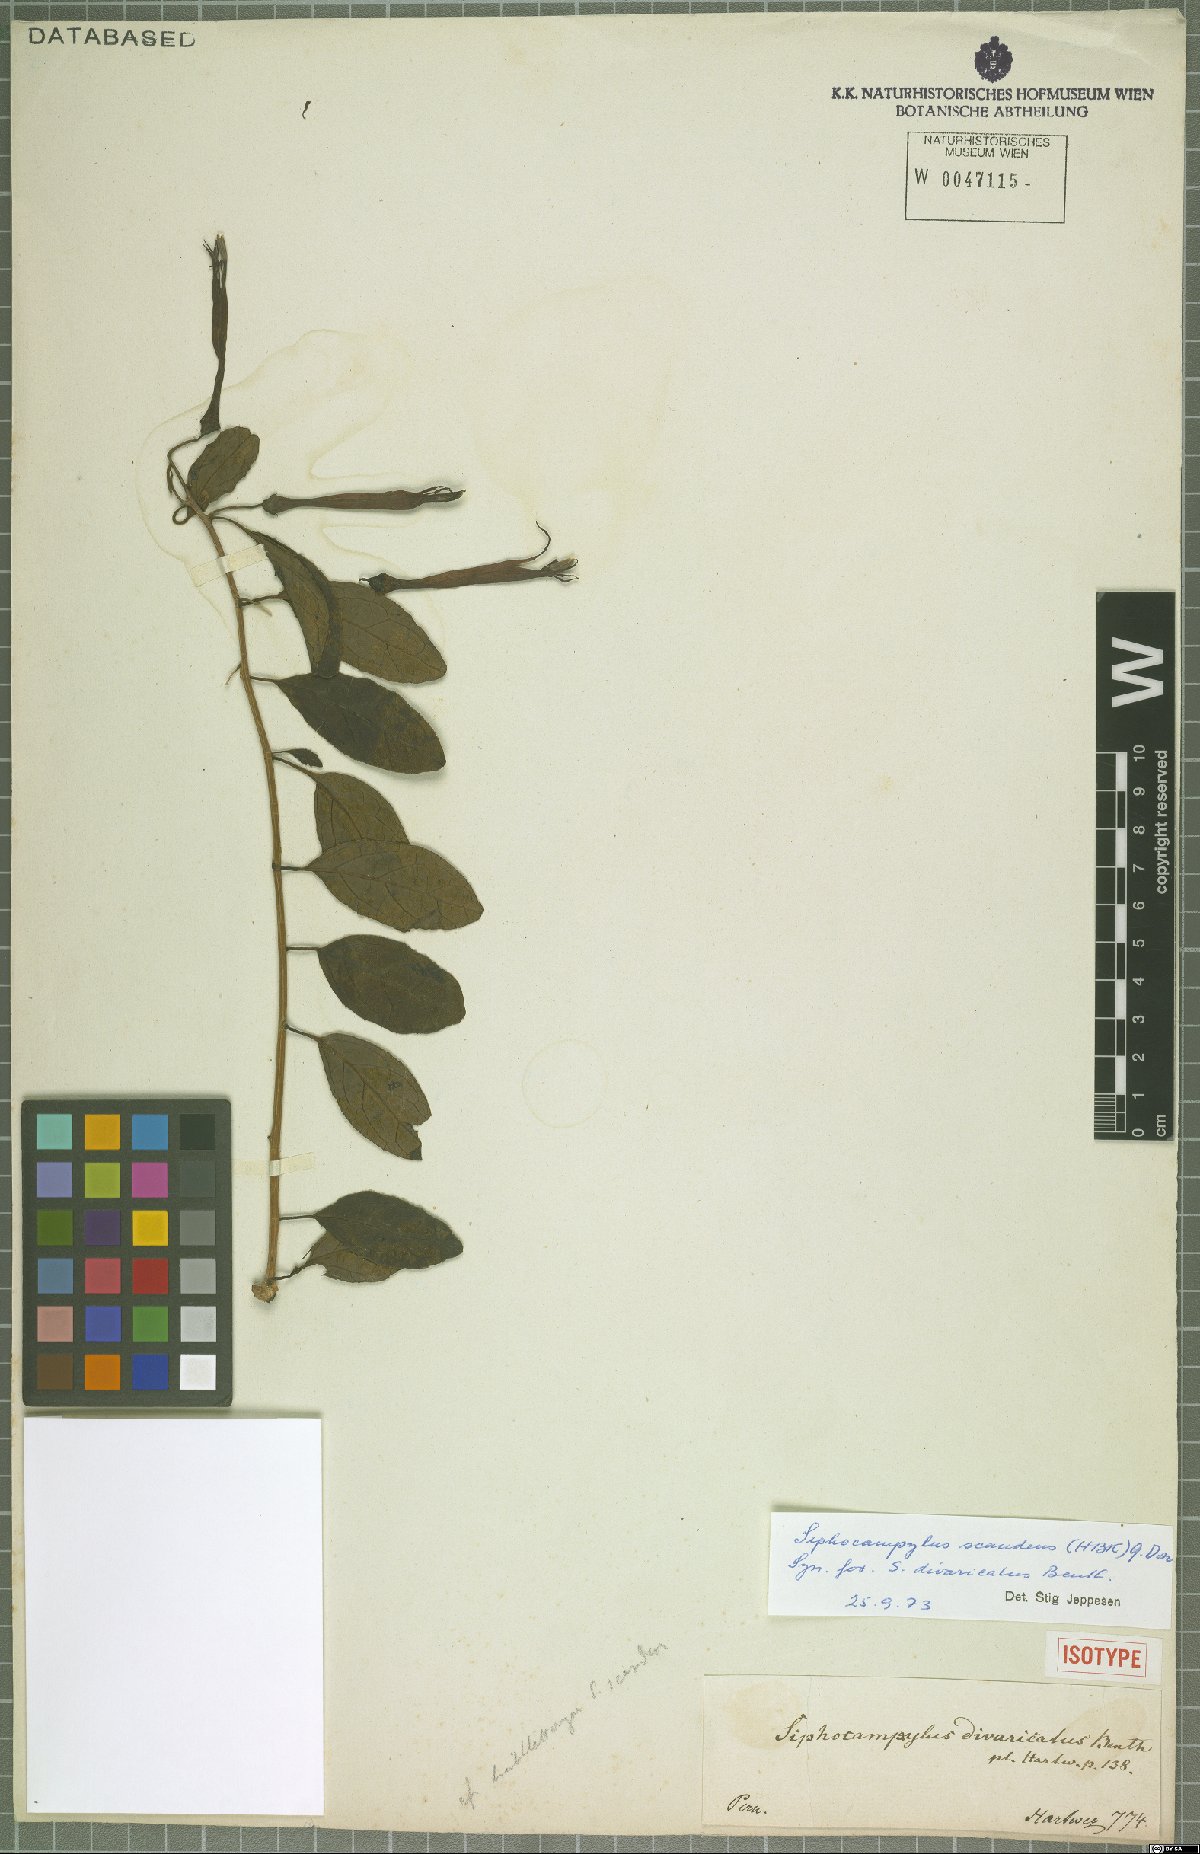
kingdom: Plantae
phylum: Tracheophyta
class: Magnoliopsida
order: Asterales
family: Campanulaceae
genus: Siphocampylus
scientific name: Siphocampylus scandens
